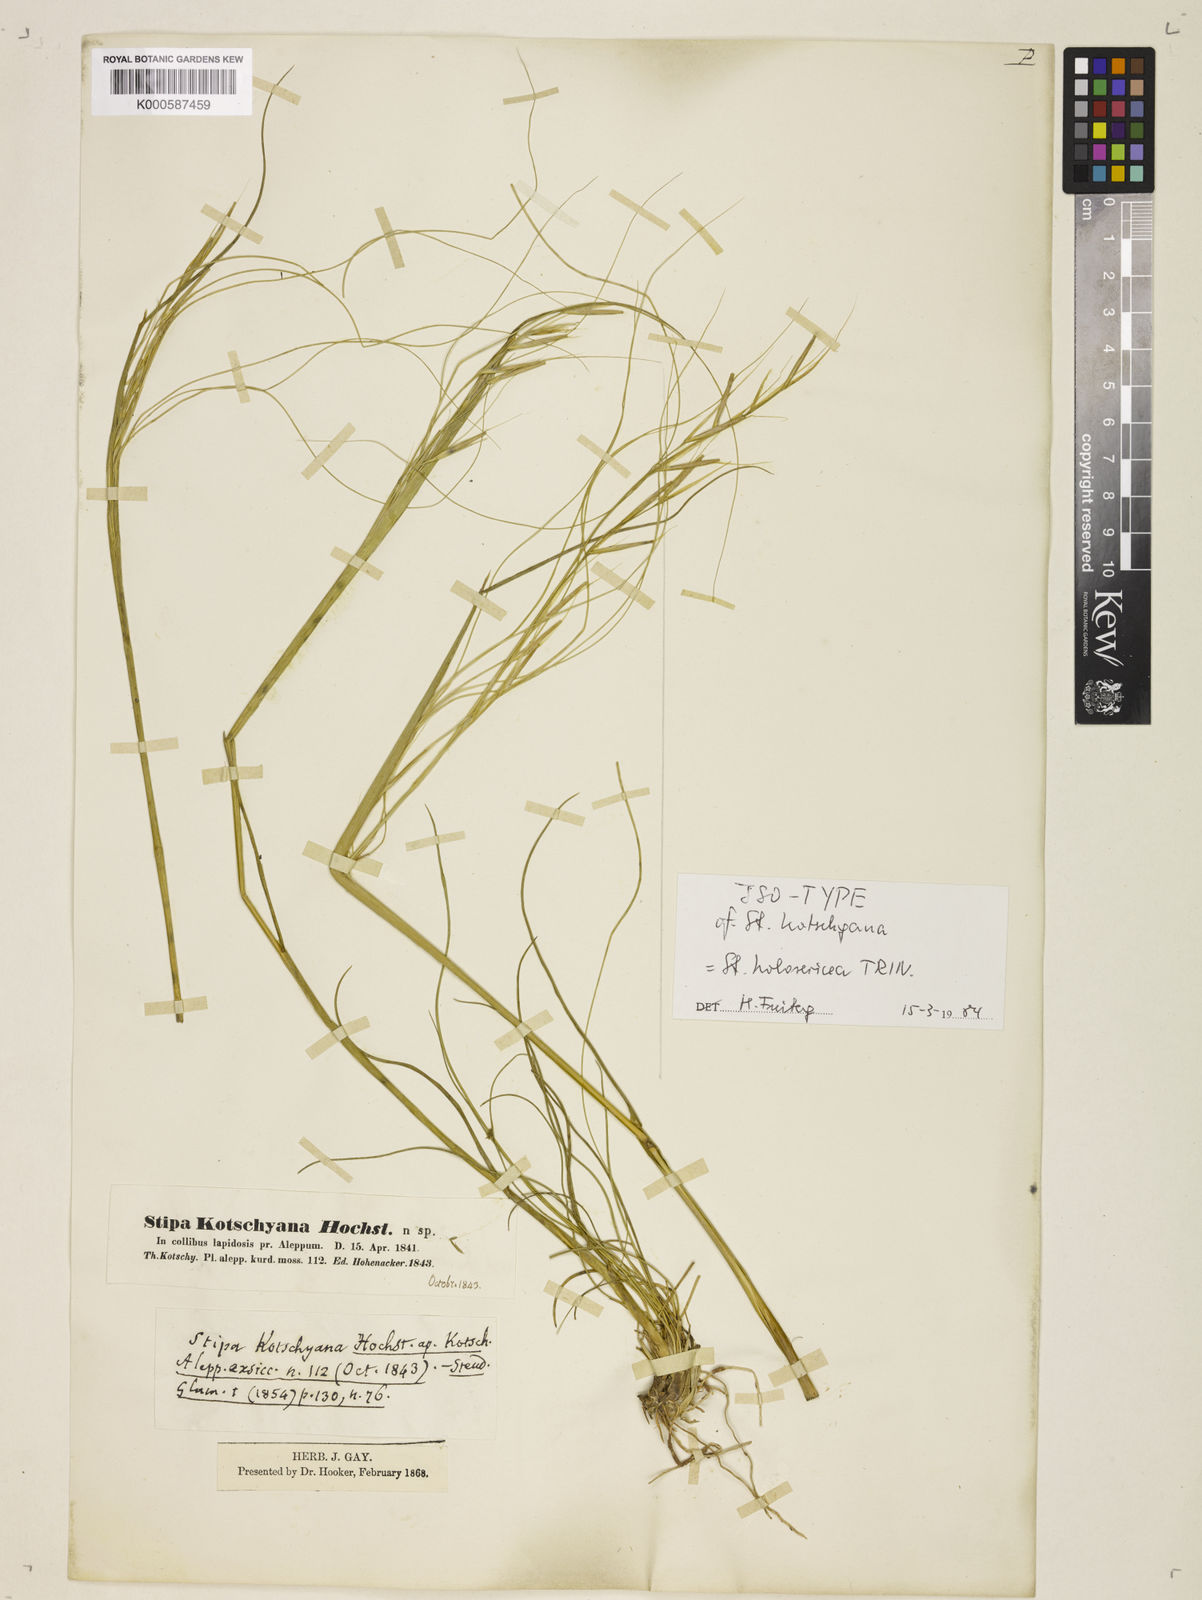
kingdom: Plantae
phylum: Tracheophyta
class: Liliopsida
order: Poales
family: Poaceae
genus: Stipa
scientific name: Stipa holosericea
